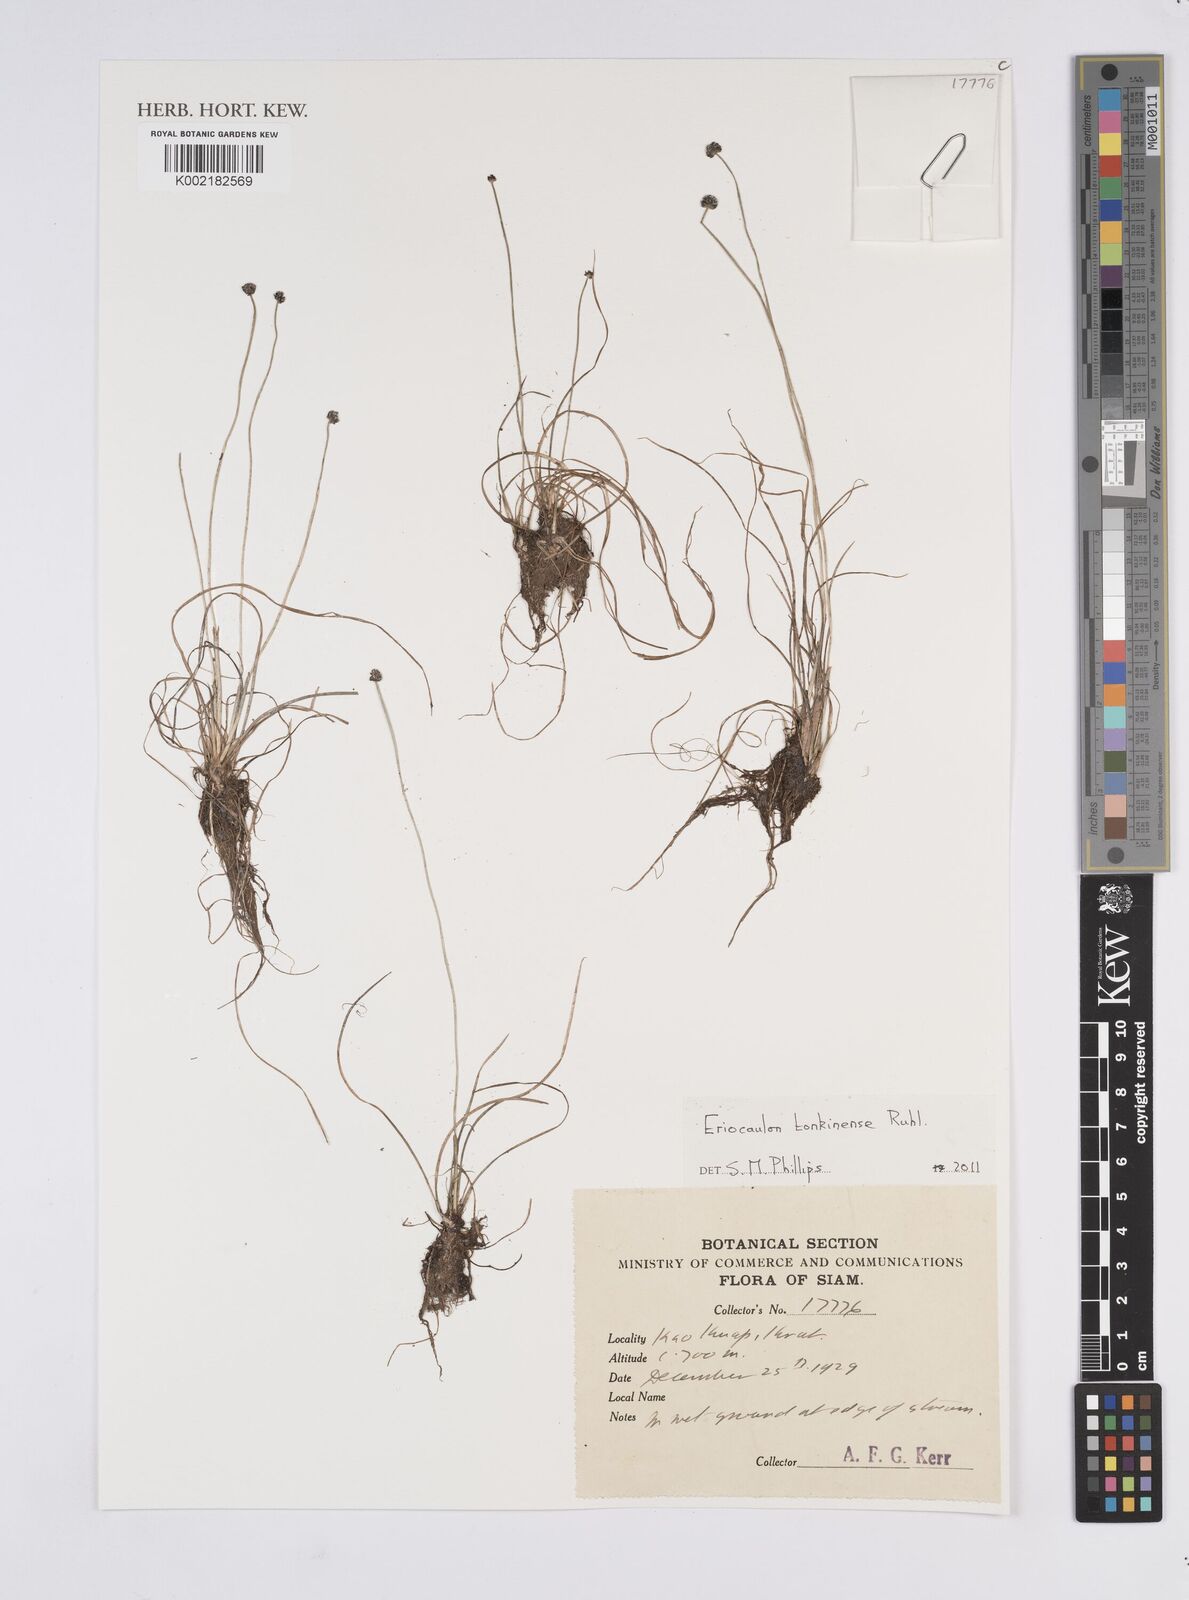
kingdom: Plantae
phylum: Tracheophyta
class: Liliopsida
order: Poales
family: Eriocaulaceae
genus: Eriocaulon
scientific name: Eriocaulon fluviatile
